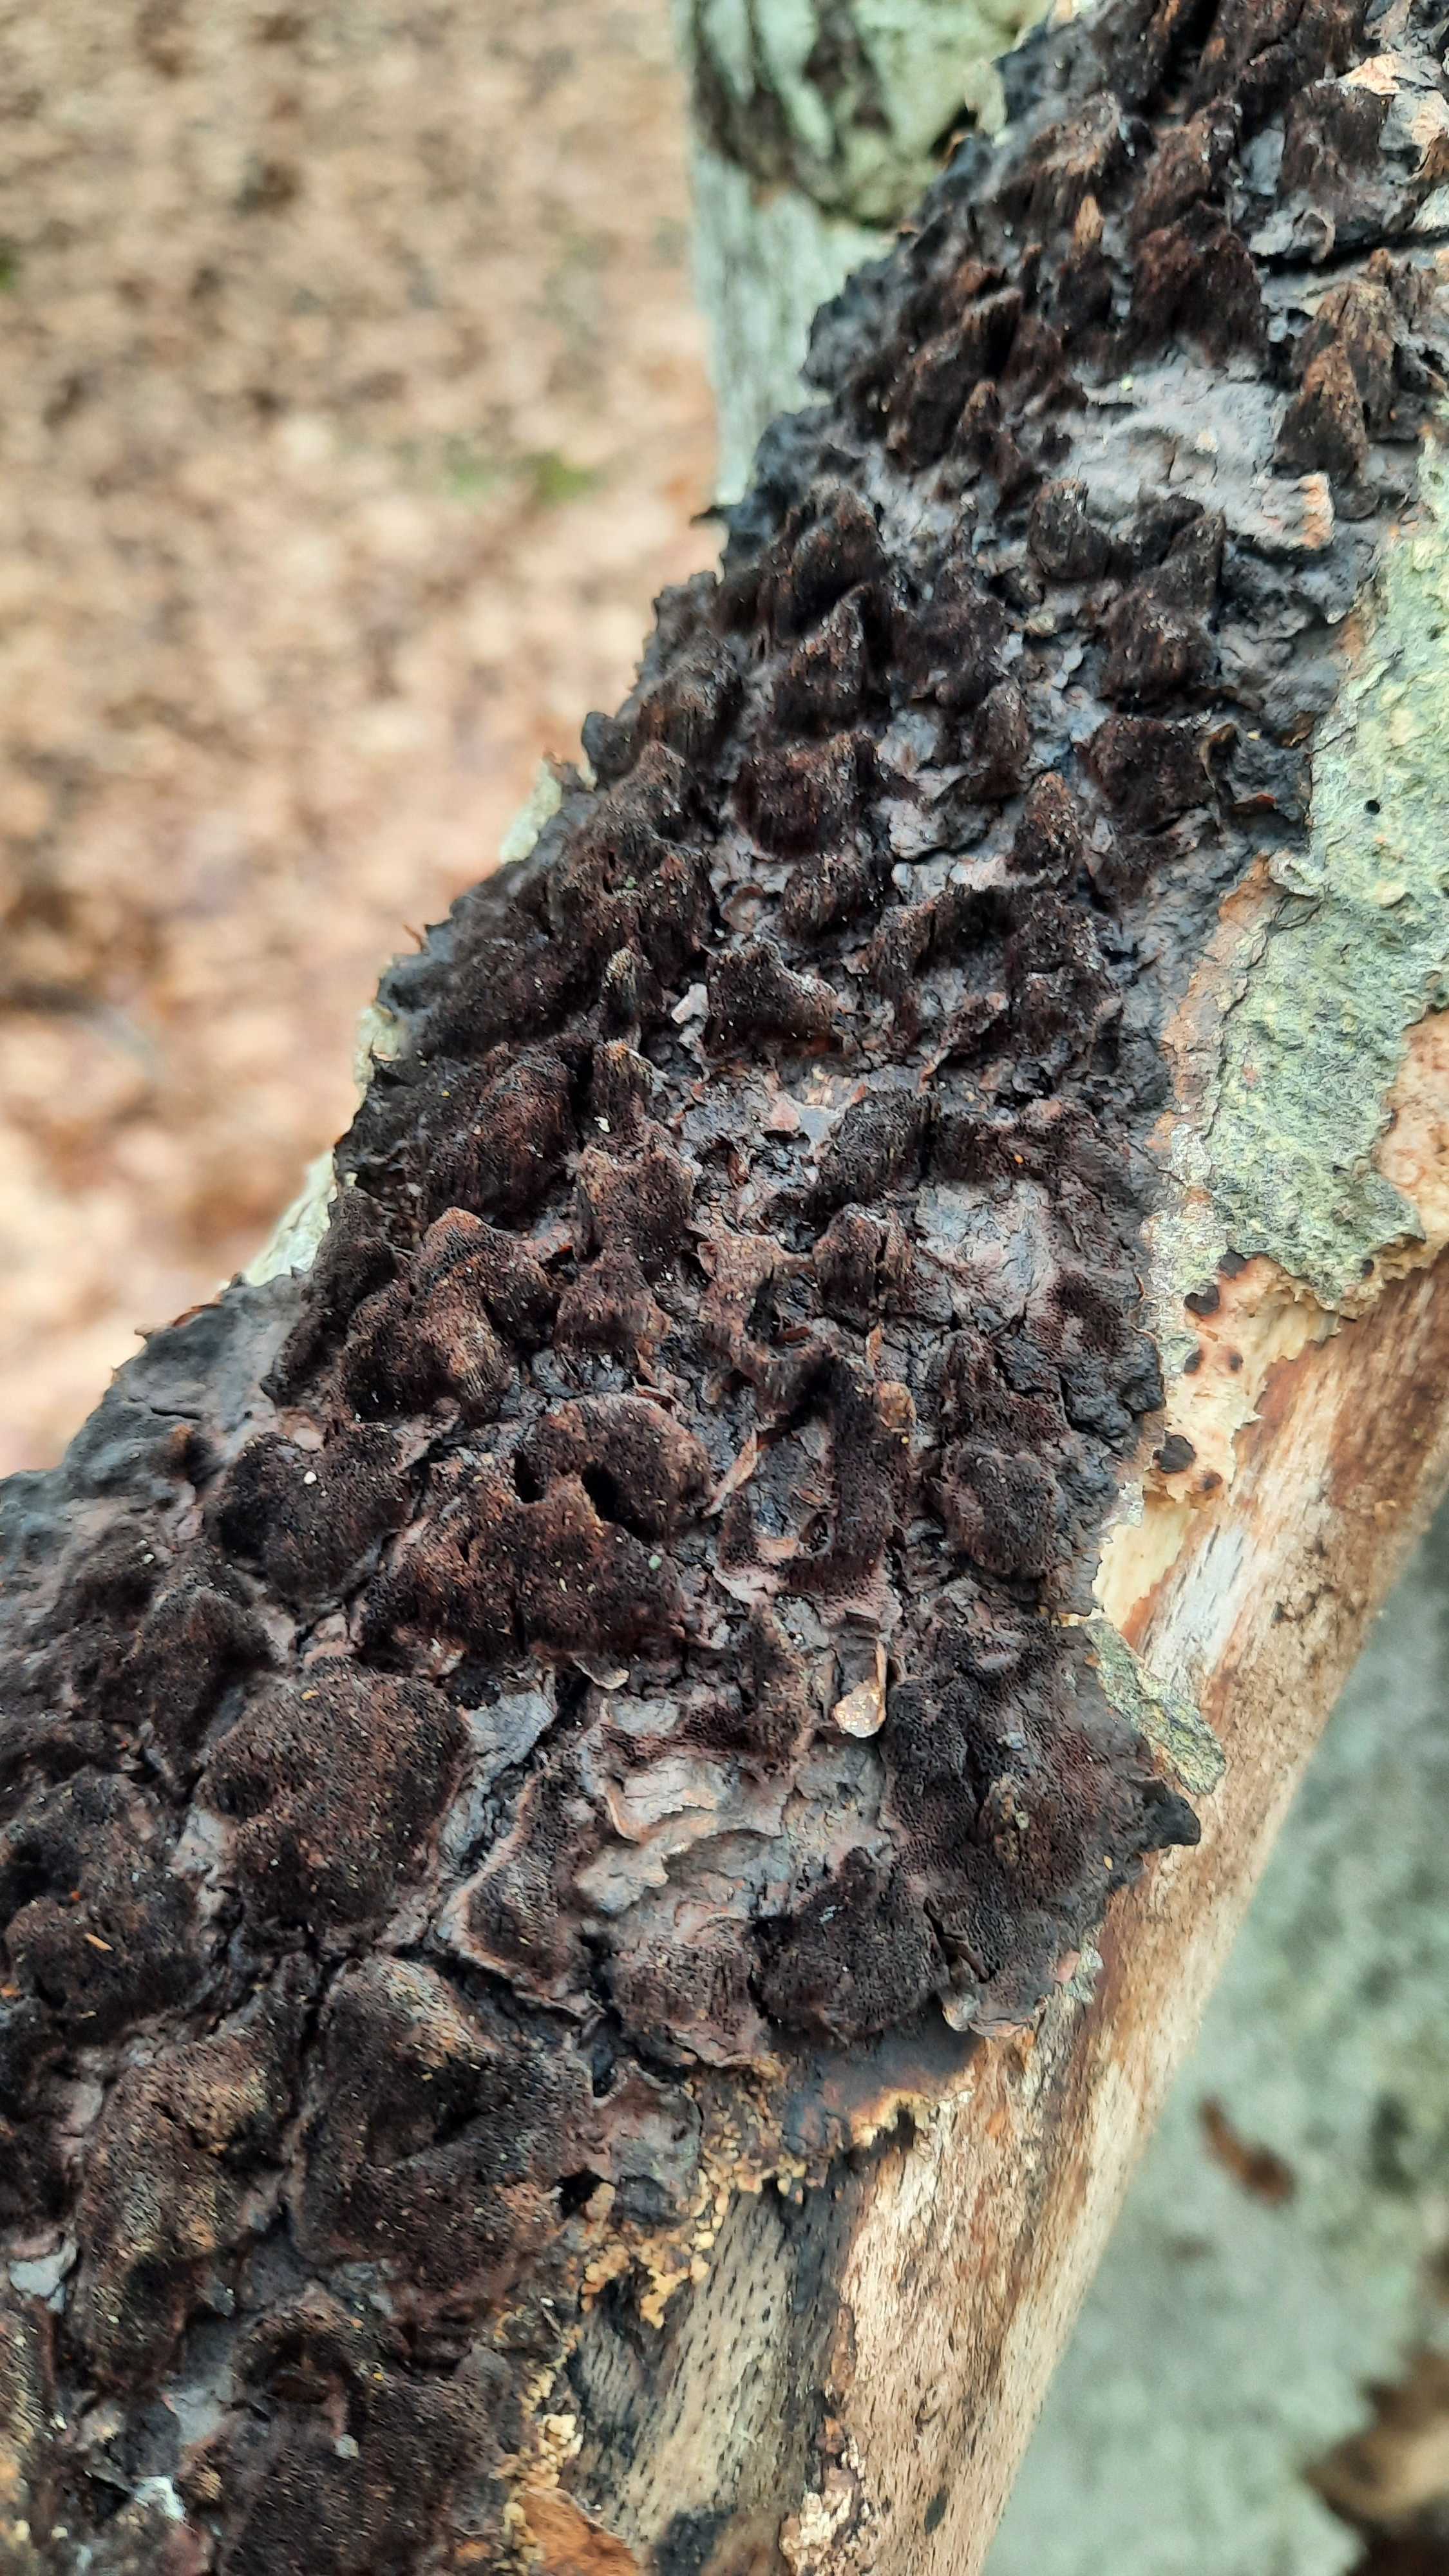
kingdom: Fungi
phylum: Basidiomycota
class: Agaricomycetes
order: Hymenochaetales
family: Hymenochaetaceae
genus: Mensularia
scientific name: Mensularia nodulosa
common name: bøge-spejlporesvamp
